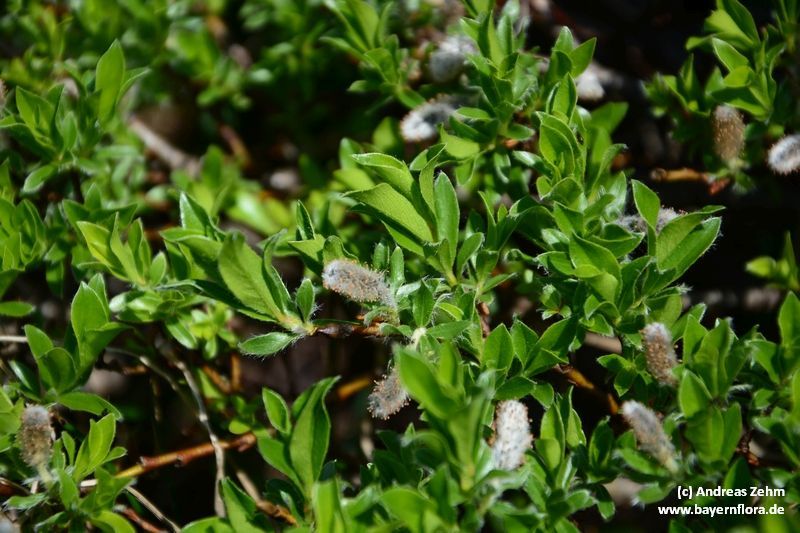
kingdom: Plantae
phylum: Tracheophyta
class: Magnoliopsida
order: Malpighiales
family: Salicaceae
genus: Salix
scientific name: Salix alpina
